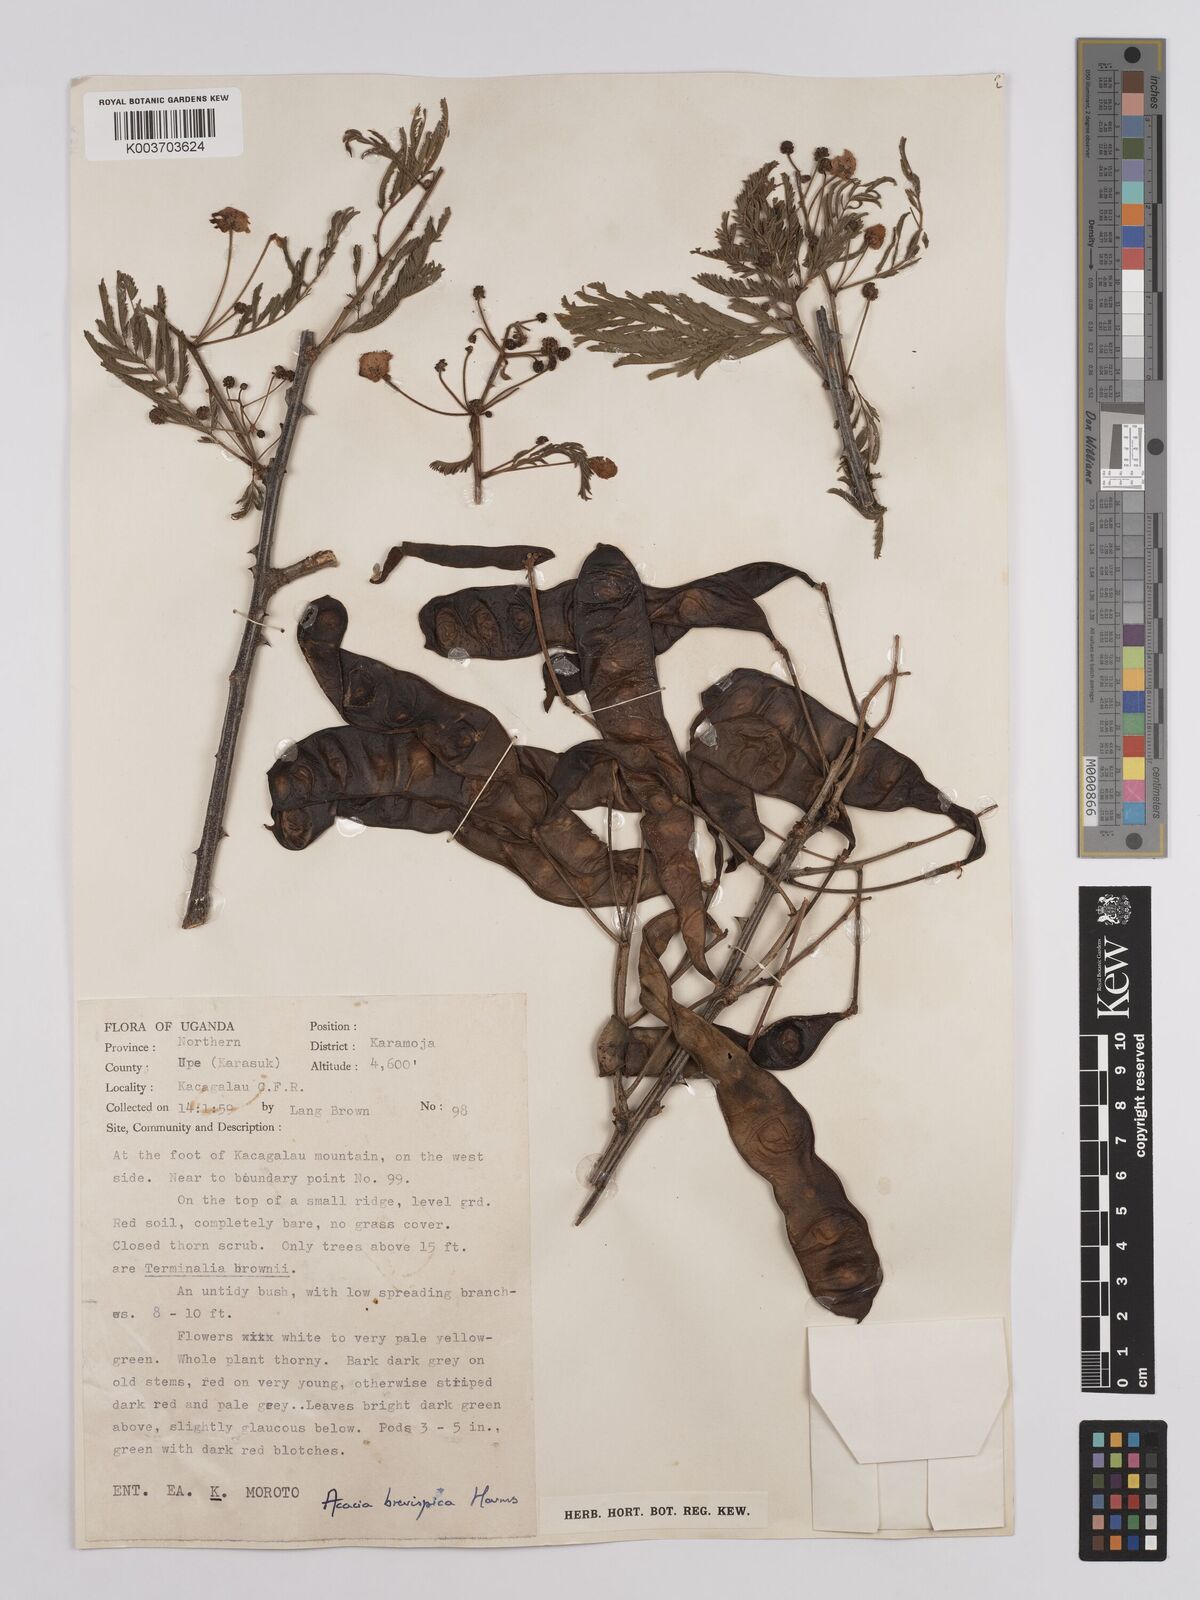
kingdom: Plantae
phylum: Tracheophyta
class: Magnoliopsida
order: Fabales
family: Fabaceae
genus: Senegalia
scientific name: Senegalia brevispica
